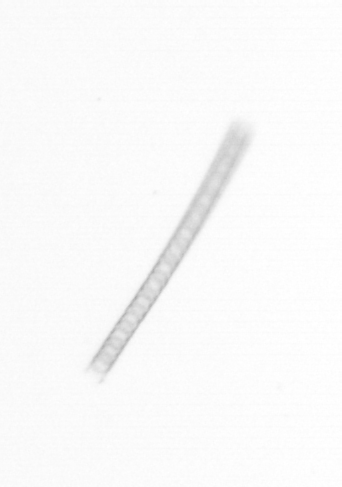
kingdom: Chromista
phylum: Ochrophyta
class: Bacillariophyceae
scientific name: Bacillariophyceae
